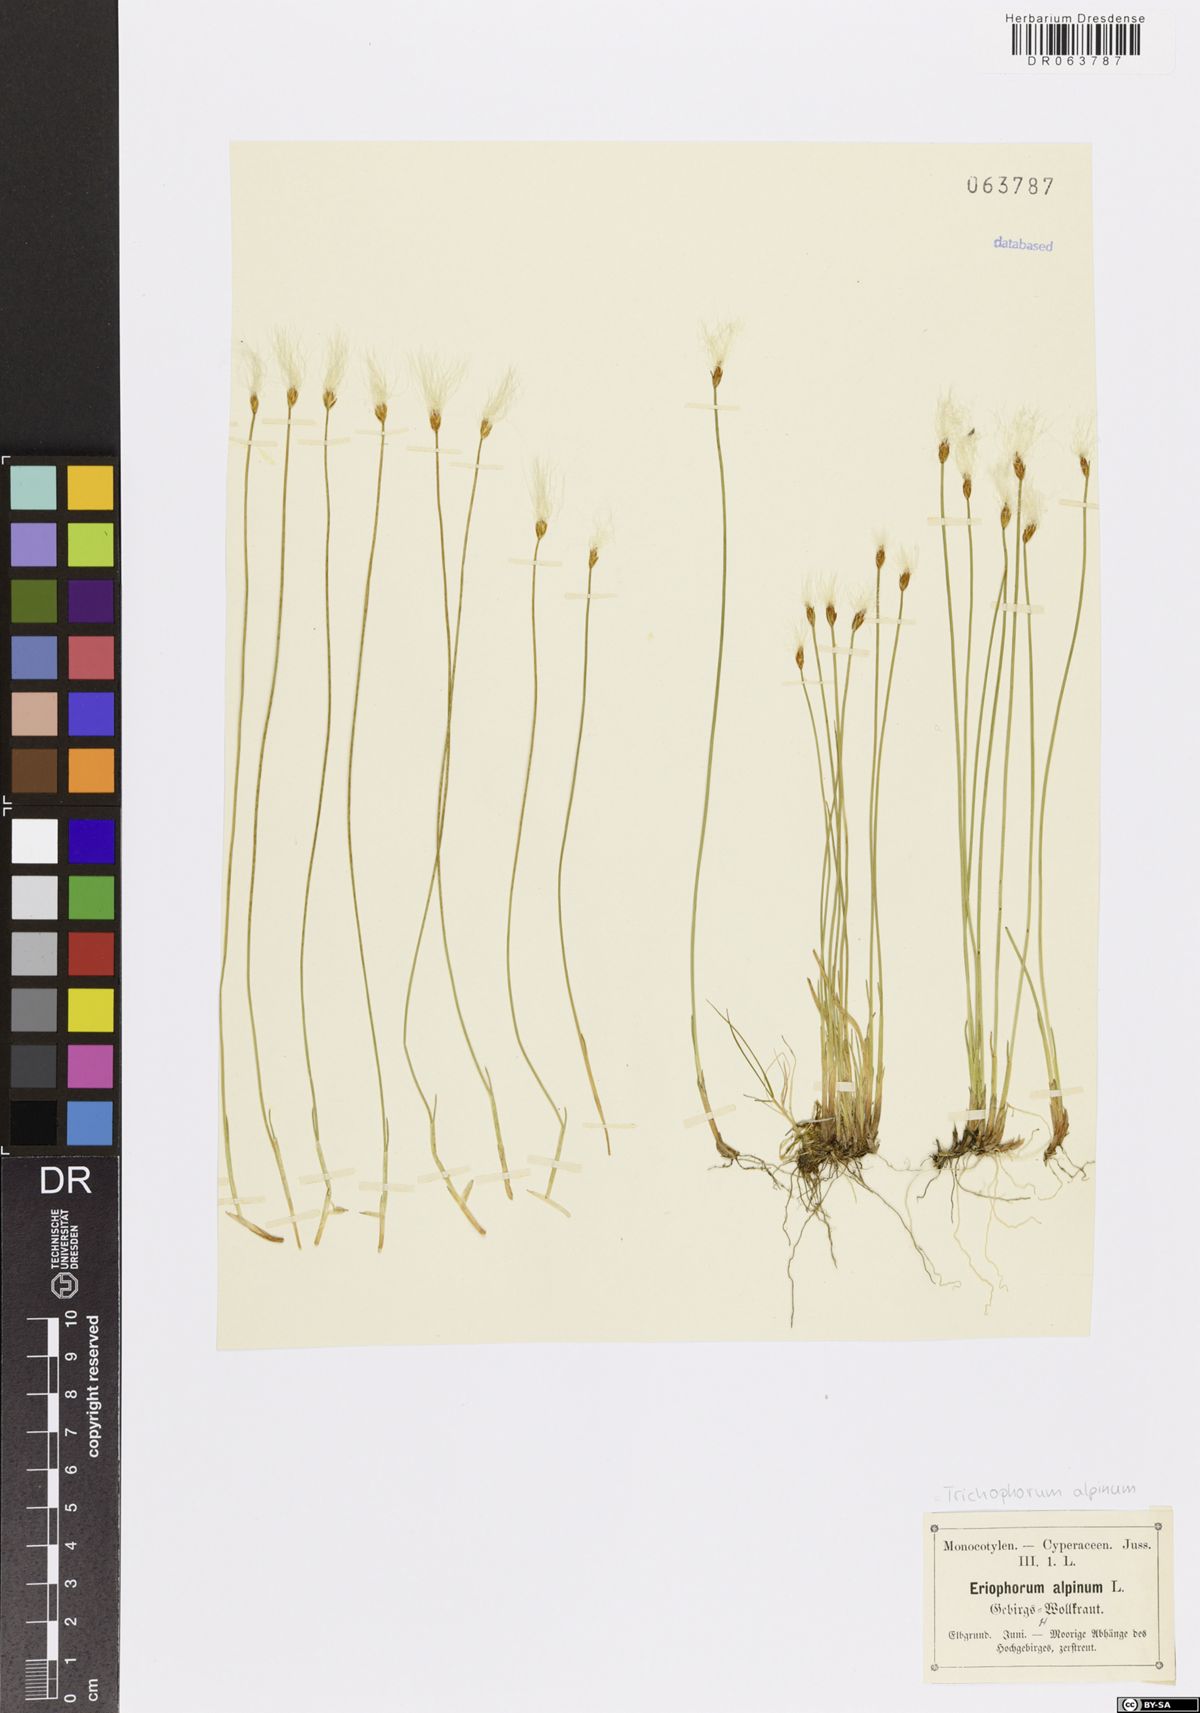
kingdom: Plantae
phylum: Tracheophyta
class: Liliopsida
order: Poales
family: Cyperaceae
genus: Trichophorum
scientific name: Trichophorum alpinum
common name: Alpine bulrush
